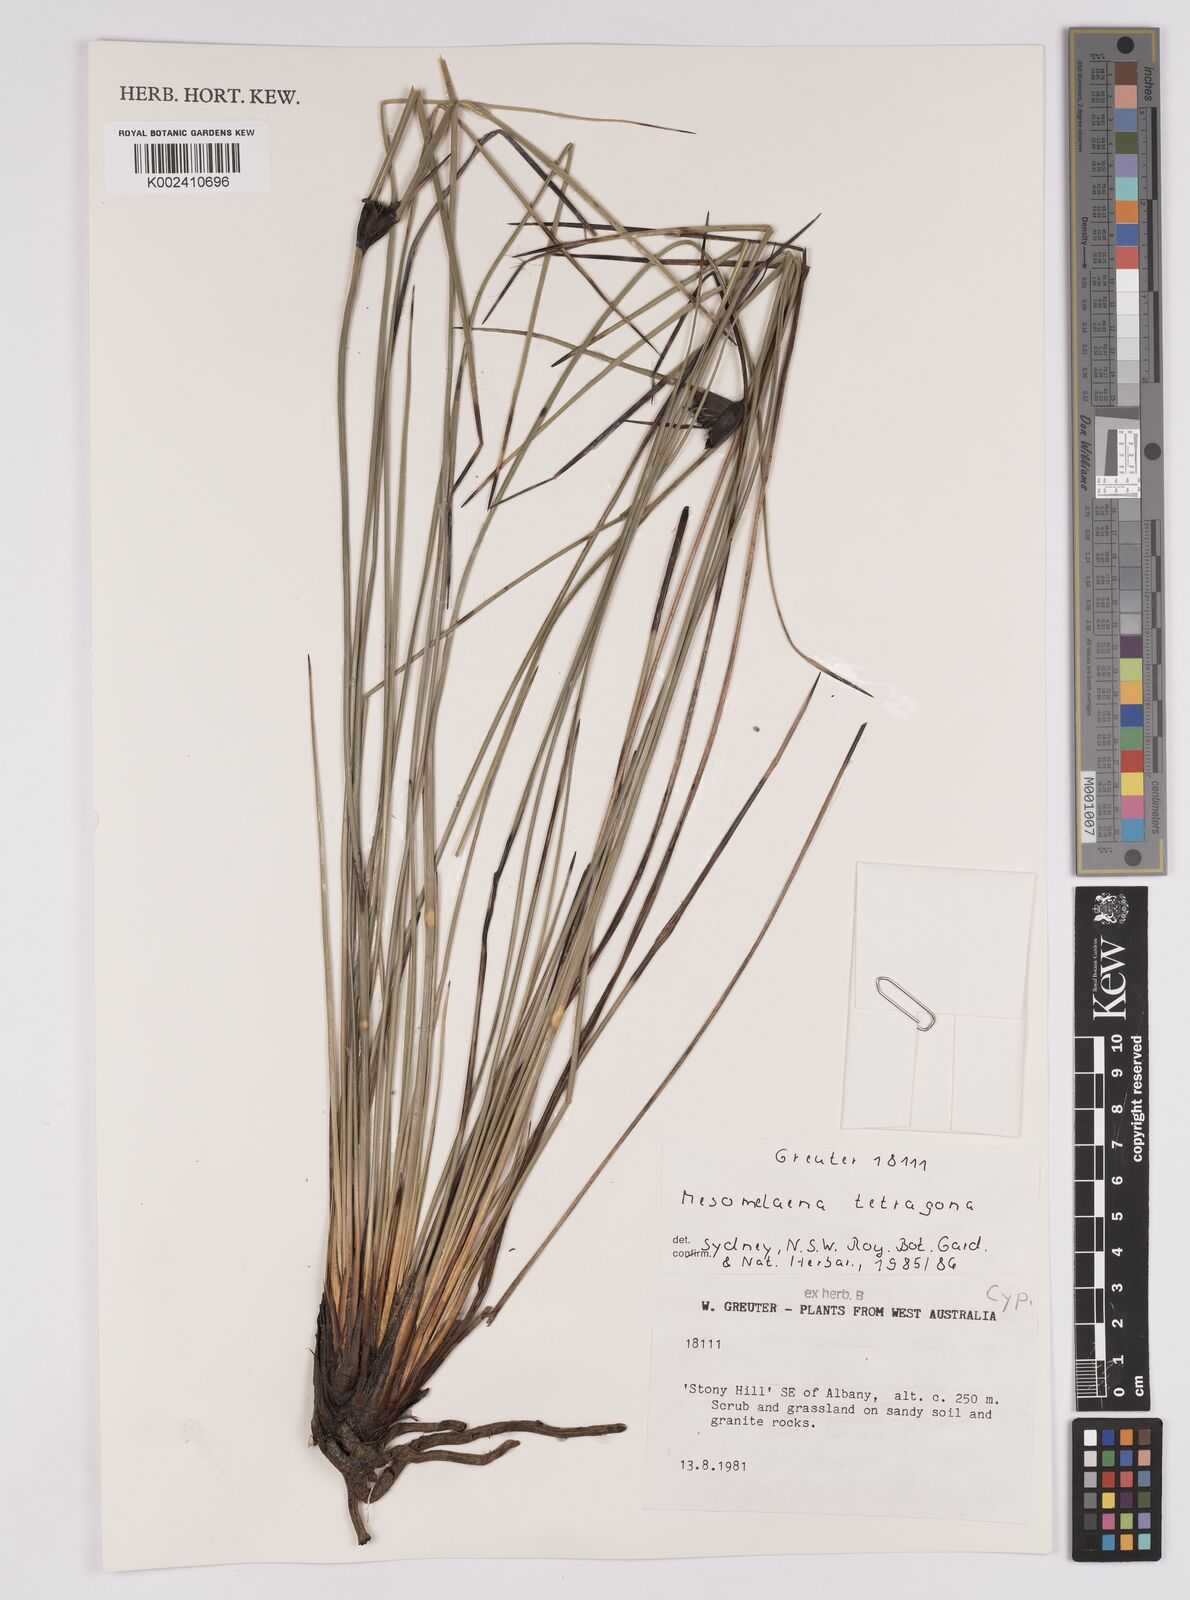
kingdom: Plantae
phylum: Tracheophyta
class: Liliopsida
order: Poales
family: Cyperaceae
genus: Mesomelaena
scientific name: Mesomelaena tetragona
